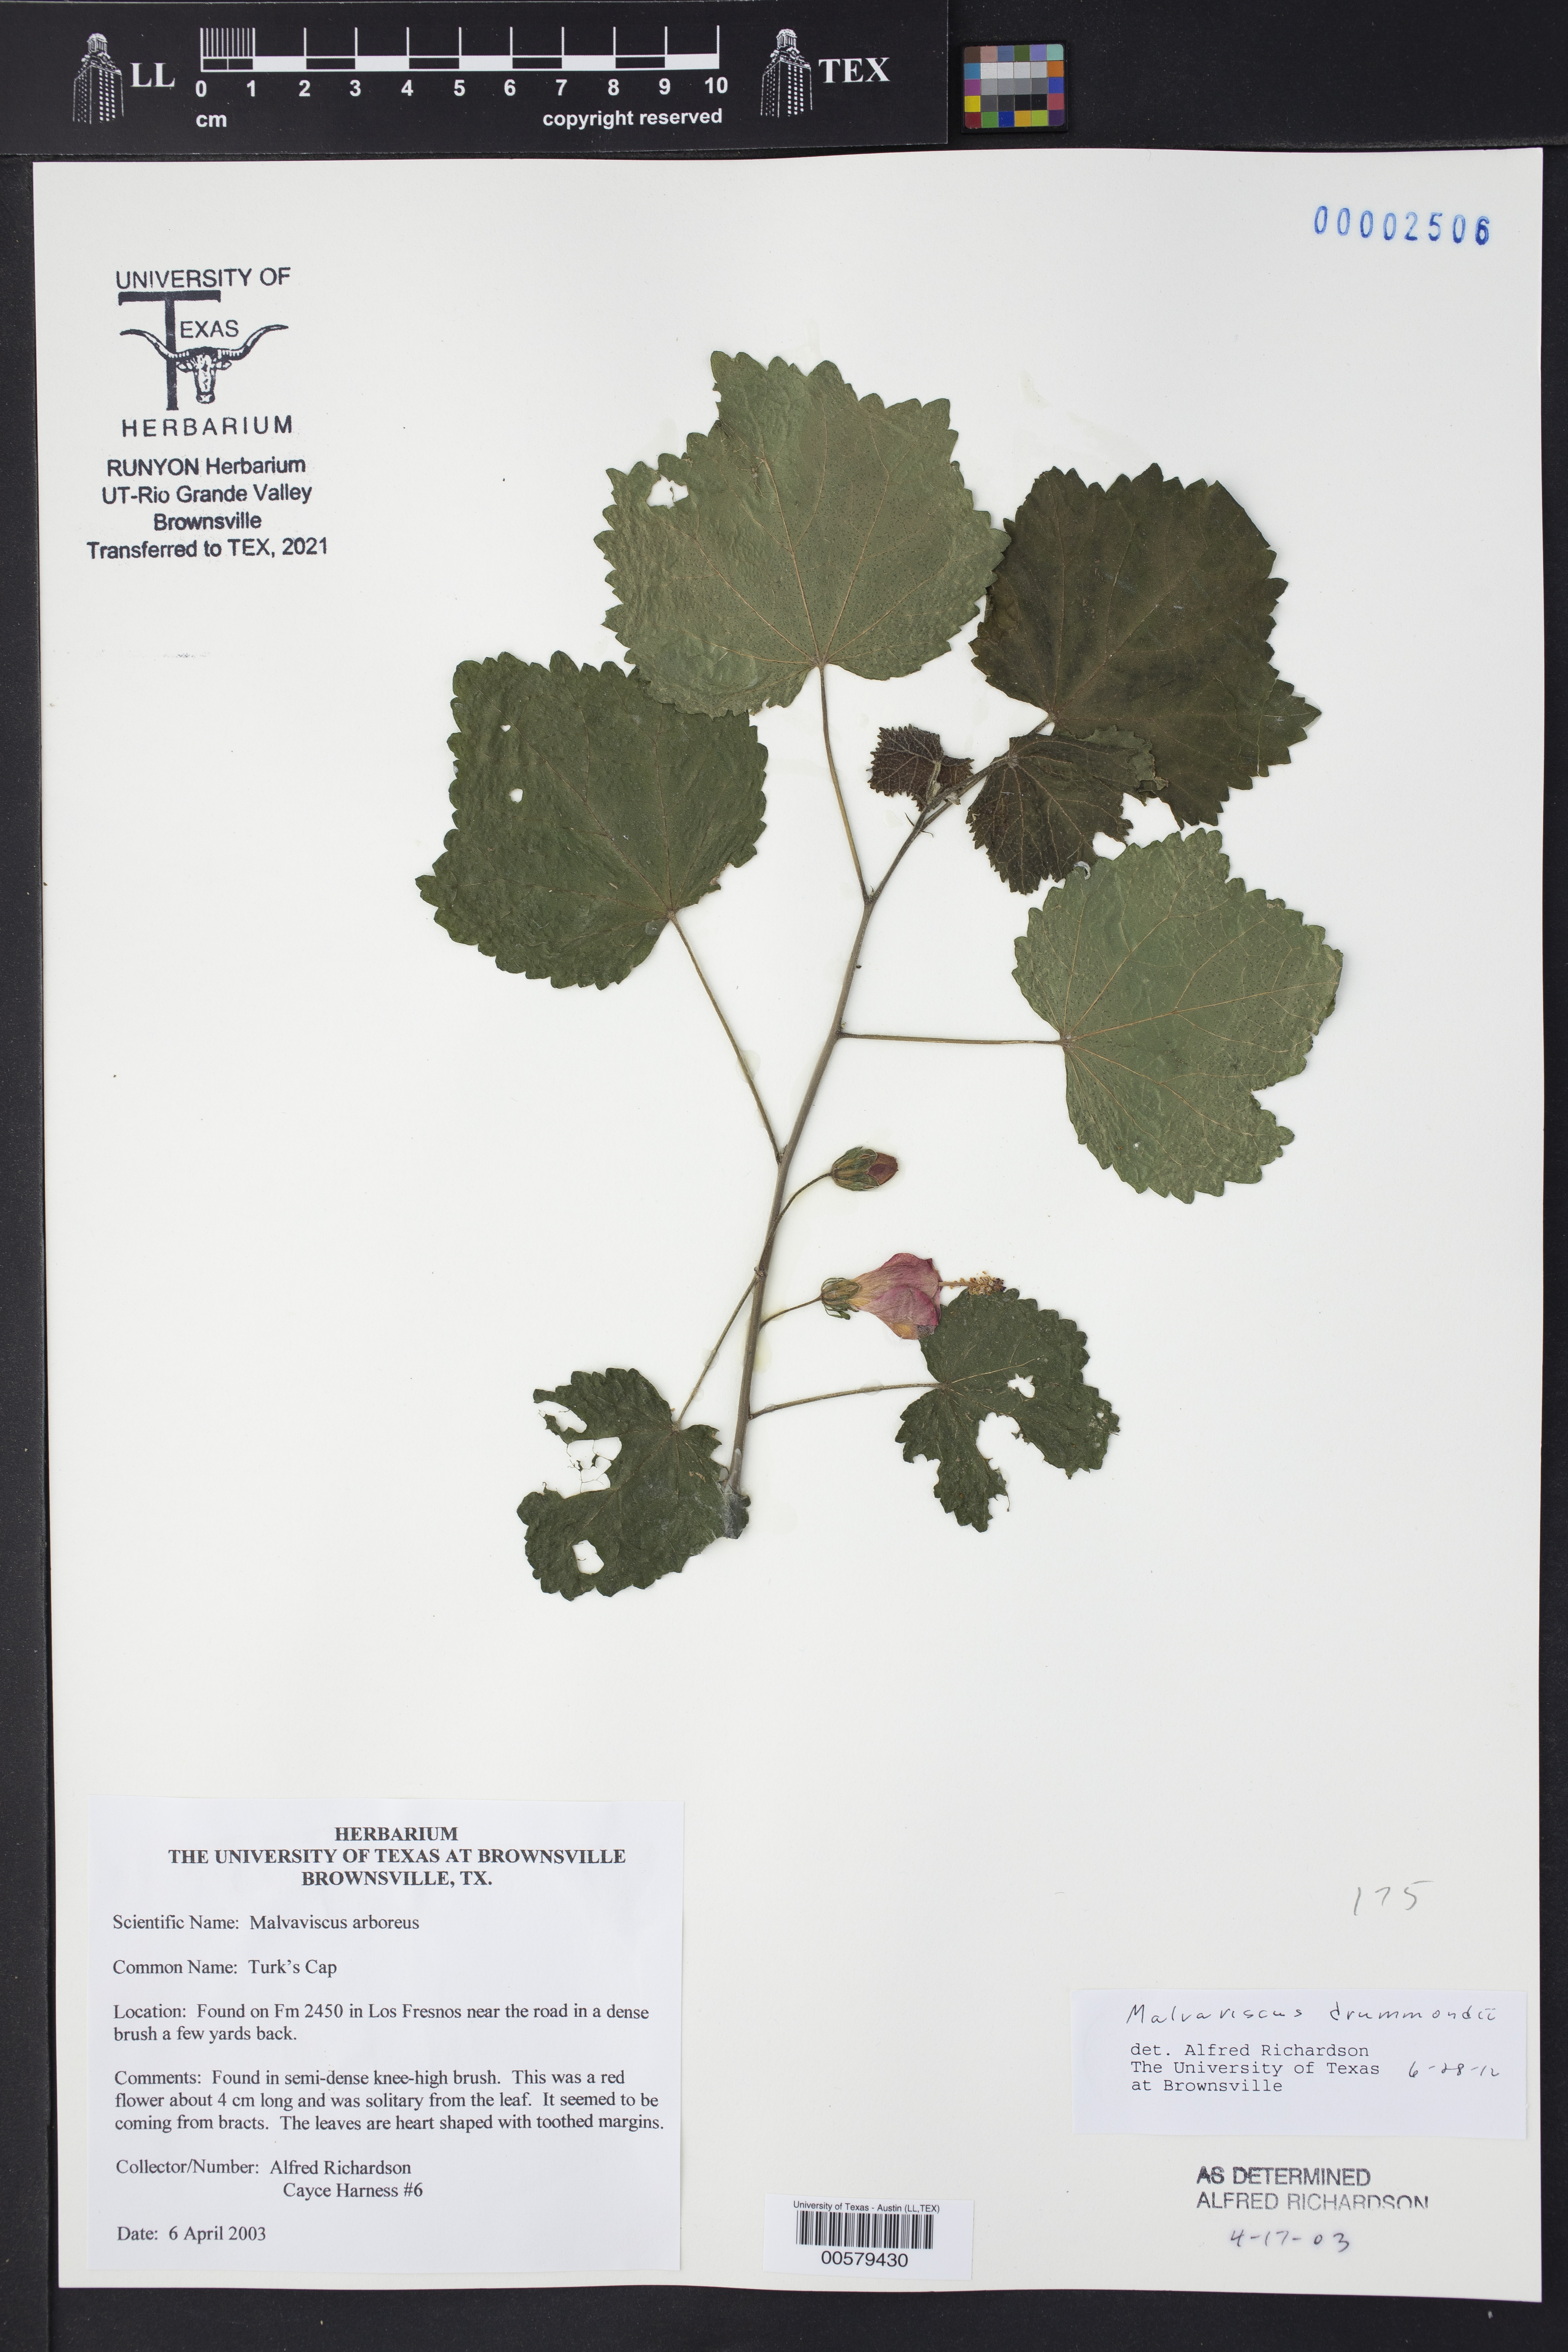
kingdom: Plantae
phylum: Tracheophyta
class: Magnoliopsida
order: Malvales
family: Malvaceae
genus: Malvaviscus
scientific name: Malvaviscus arboreus
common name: Wax mallow
